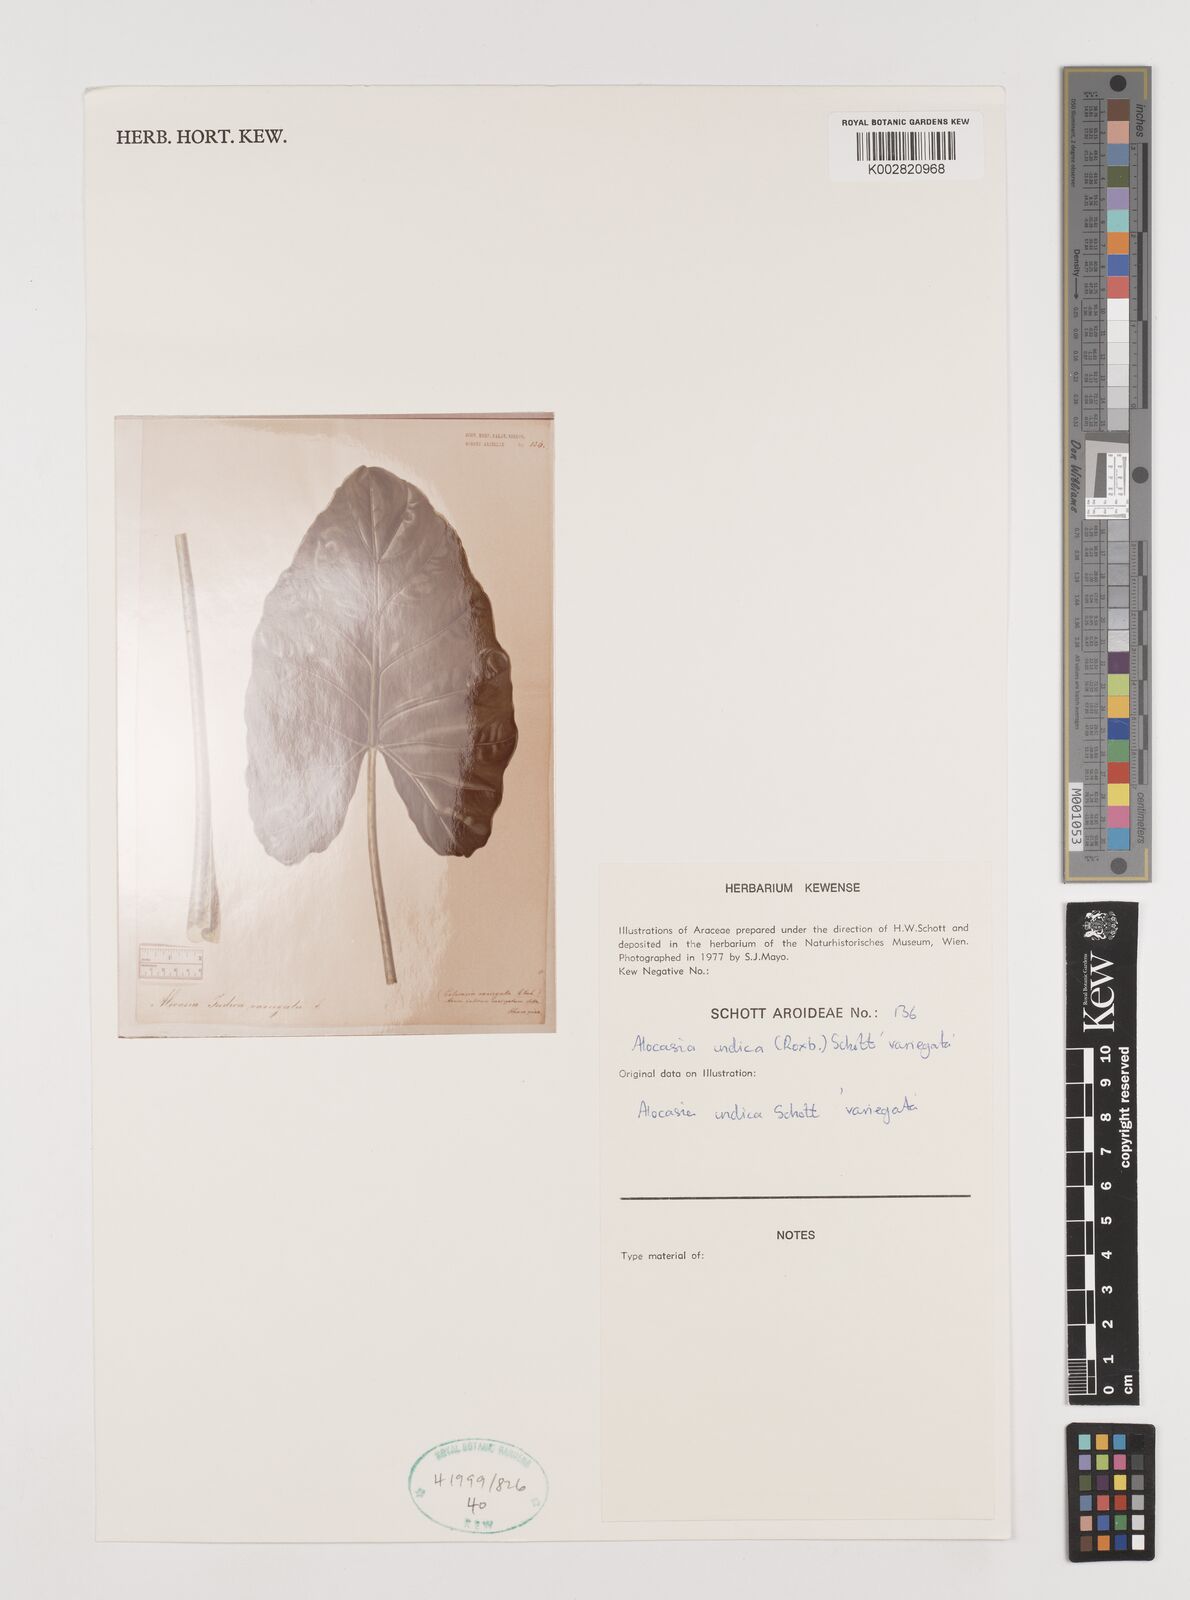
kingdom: Plantae
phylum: Tracheophyta
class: Liliopsida
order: Alismatales
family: Araceae
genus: Alocasia
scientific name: Alocasia macrorrhizos
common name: Giant taro
